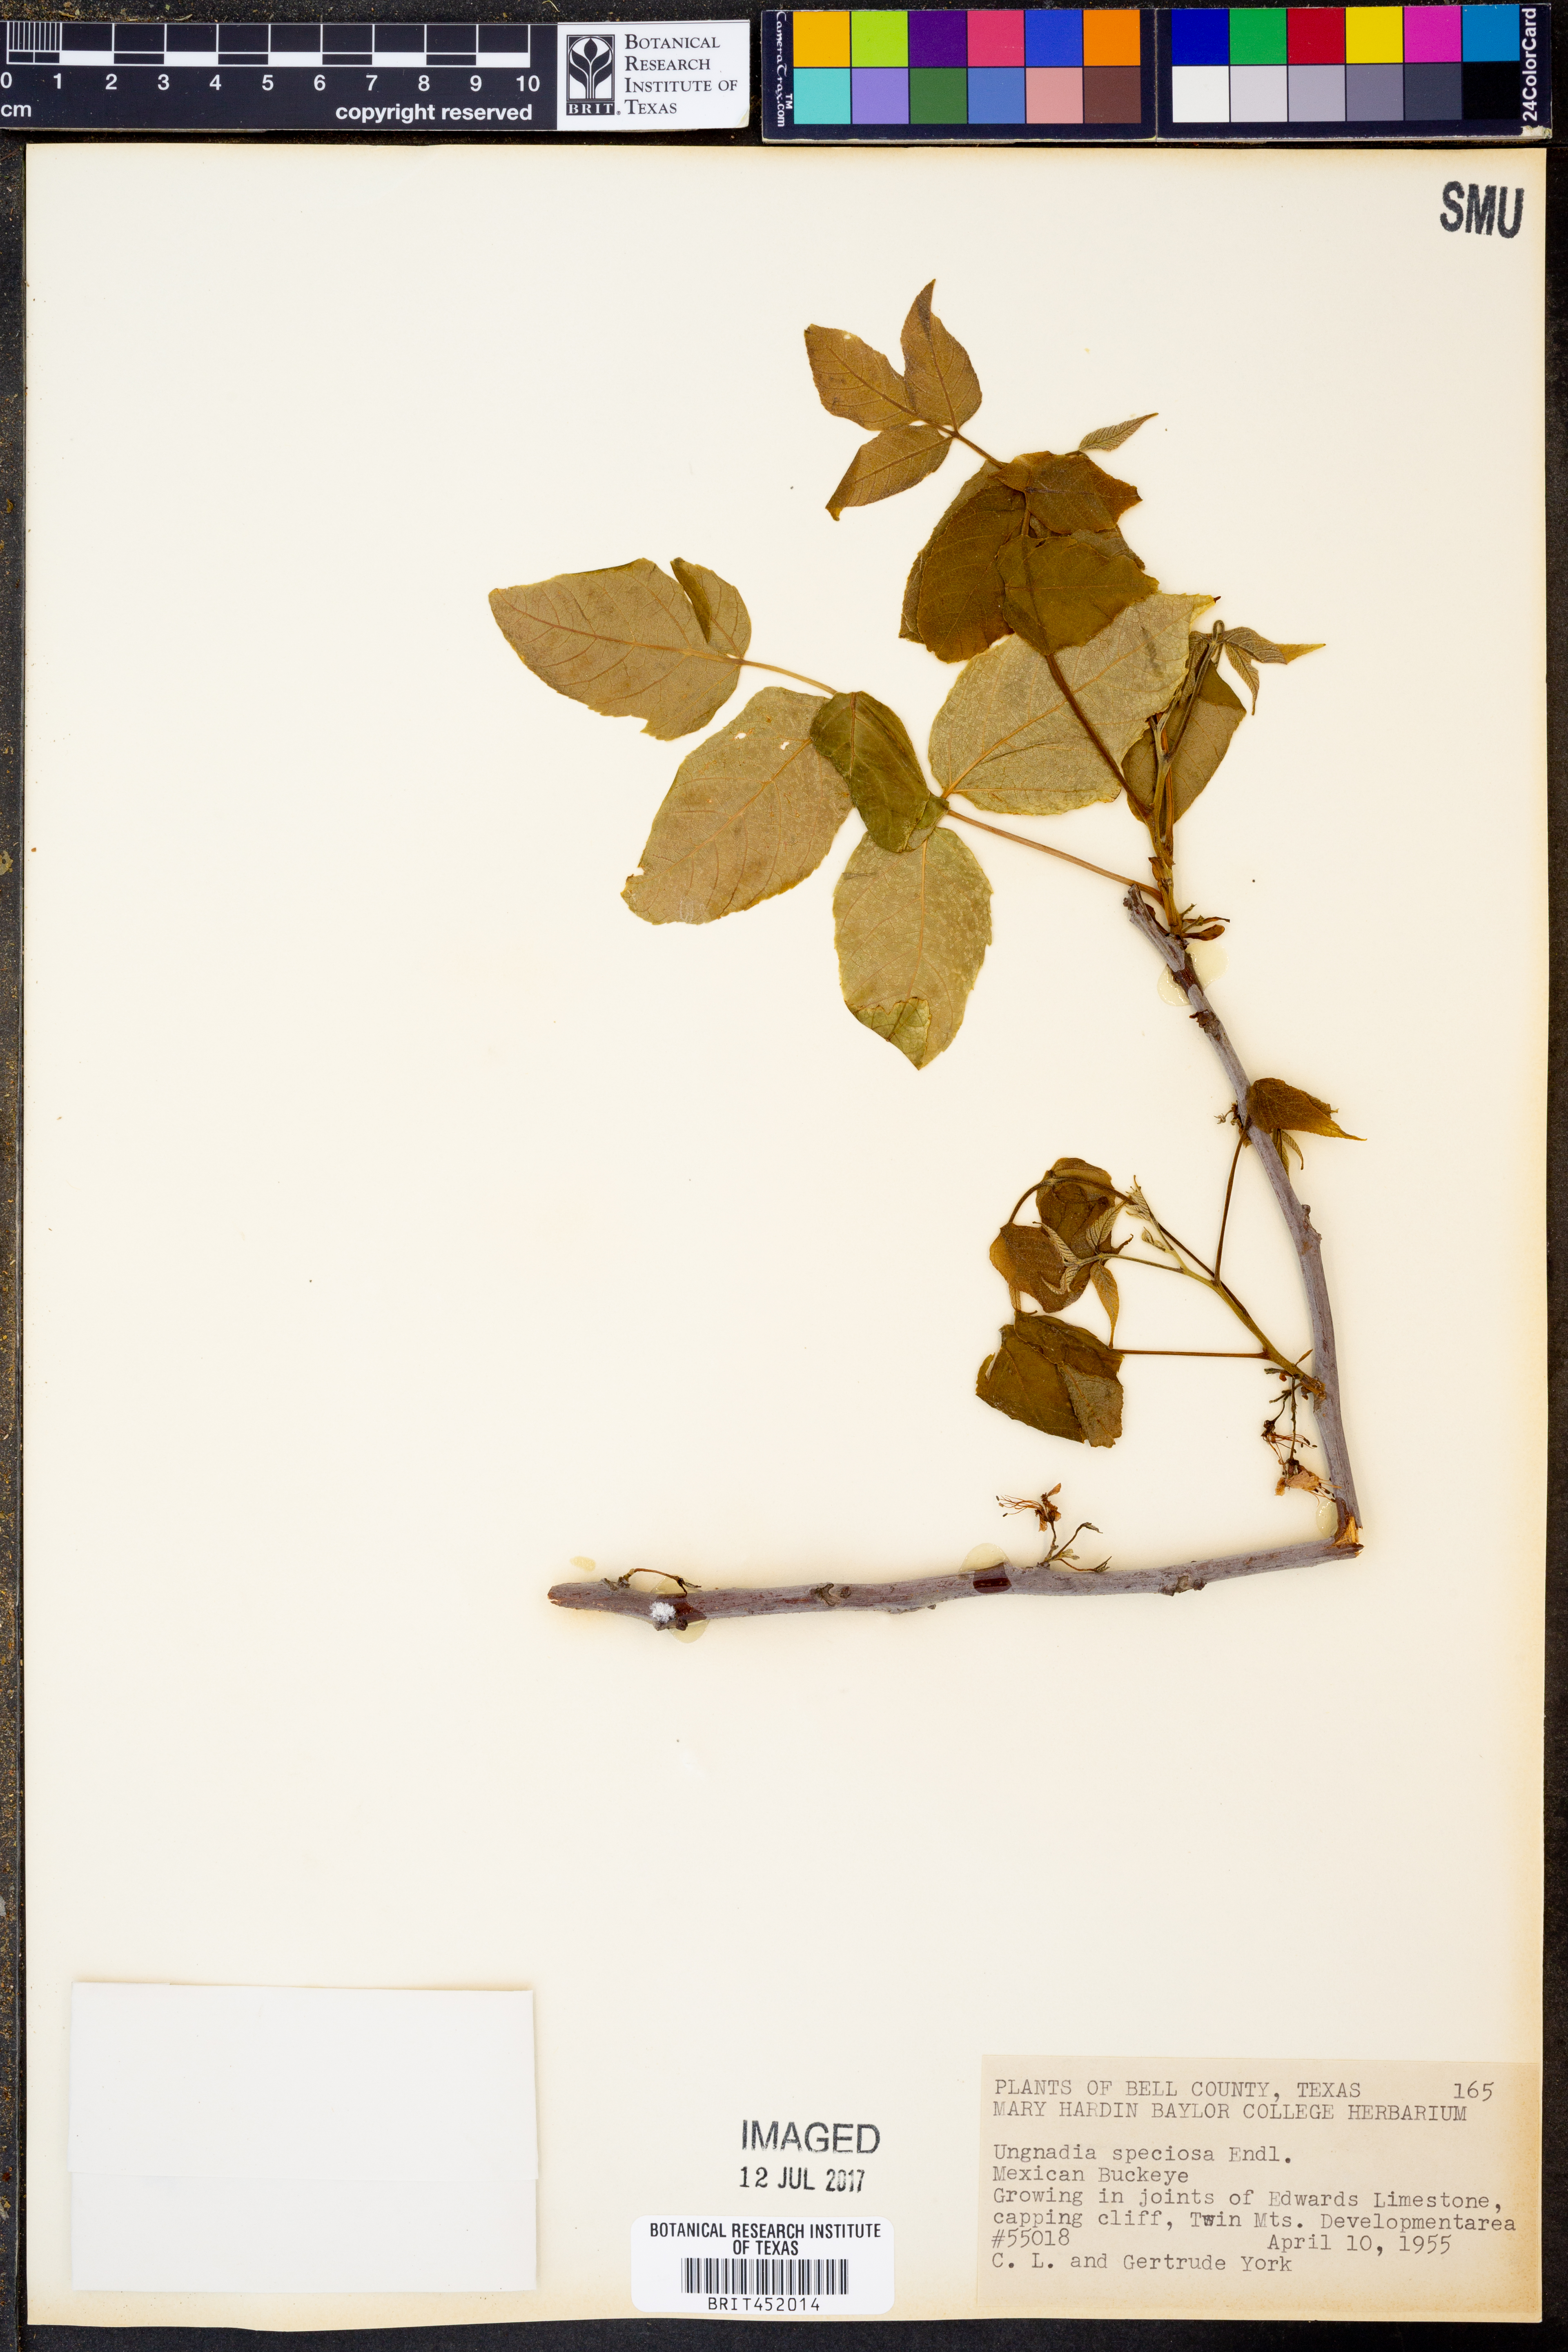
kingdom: Plantae
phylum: Tracheophyta
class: Magnoliopsida
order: Sapindales
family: Sapindaceae
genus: Ungnadia
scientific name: Ungnadia speciosa
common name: Texas-buckeye
